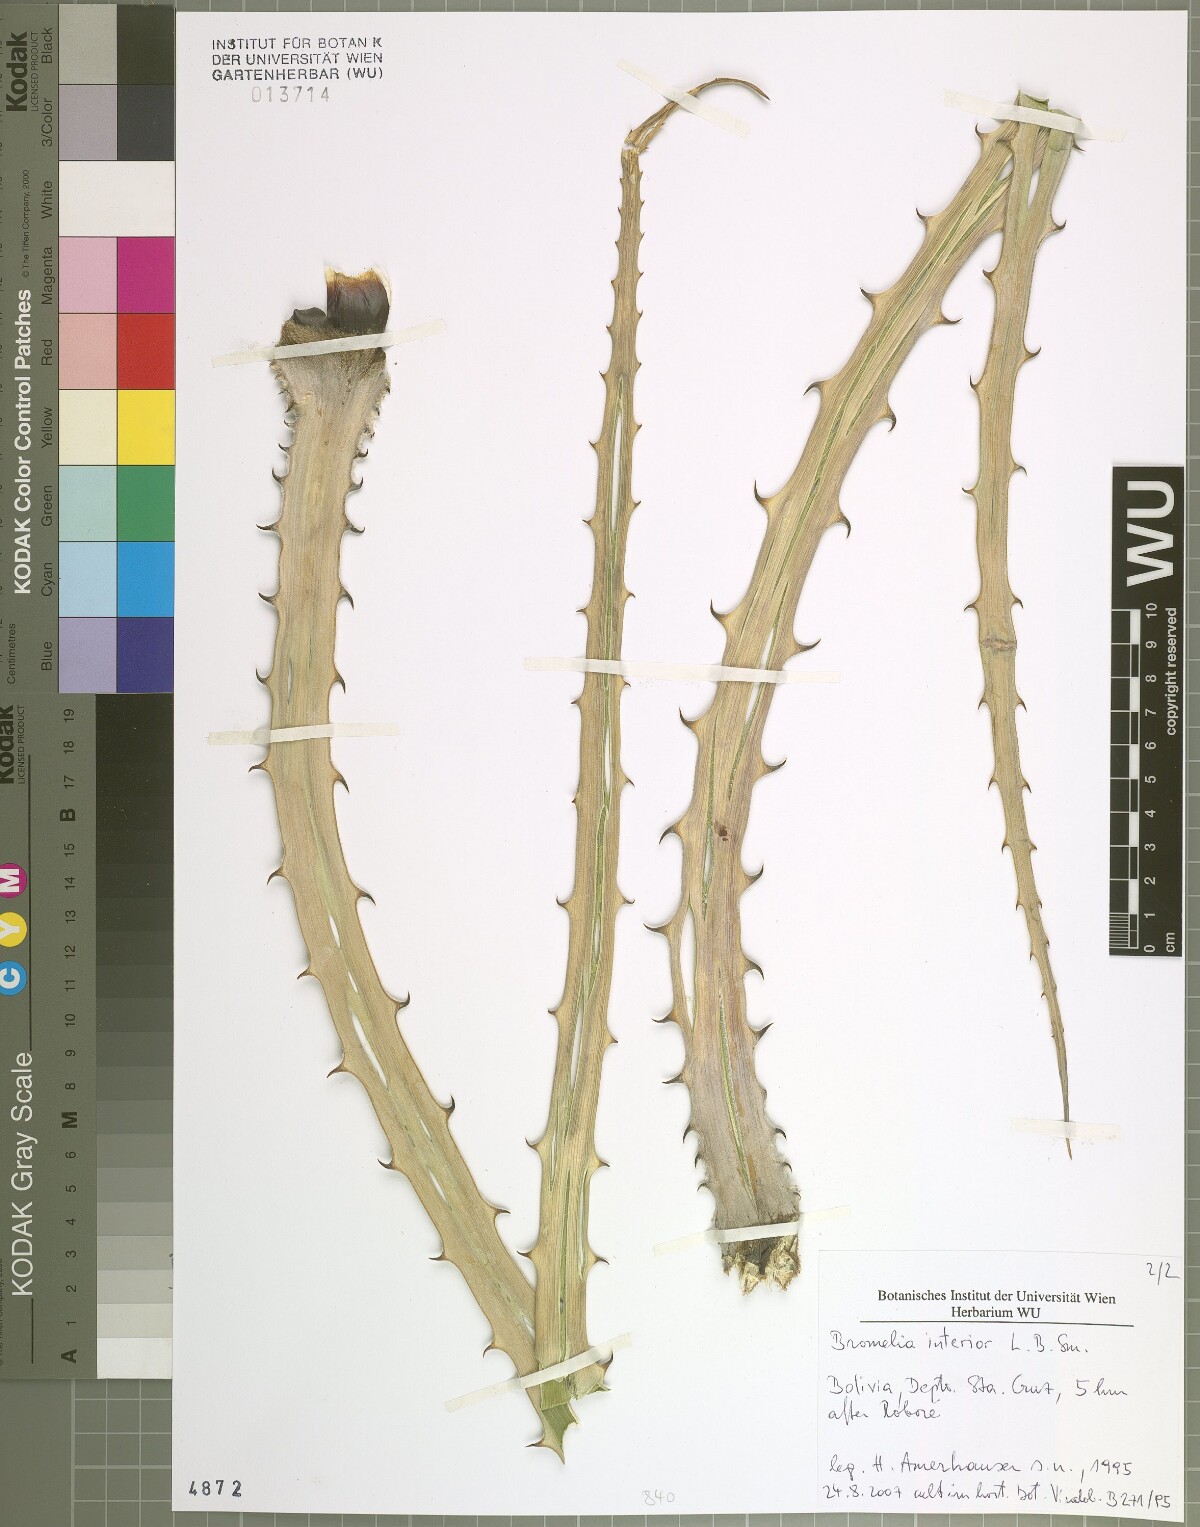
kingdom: Plantae
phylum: Tracheophyta
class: Liliopsida
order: Poales
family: Bromeliaceae
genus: Bromelia
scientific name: Bromelia serra
